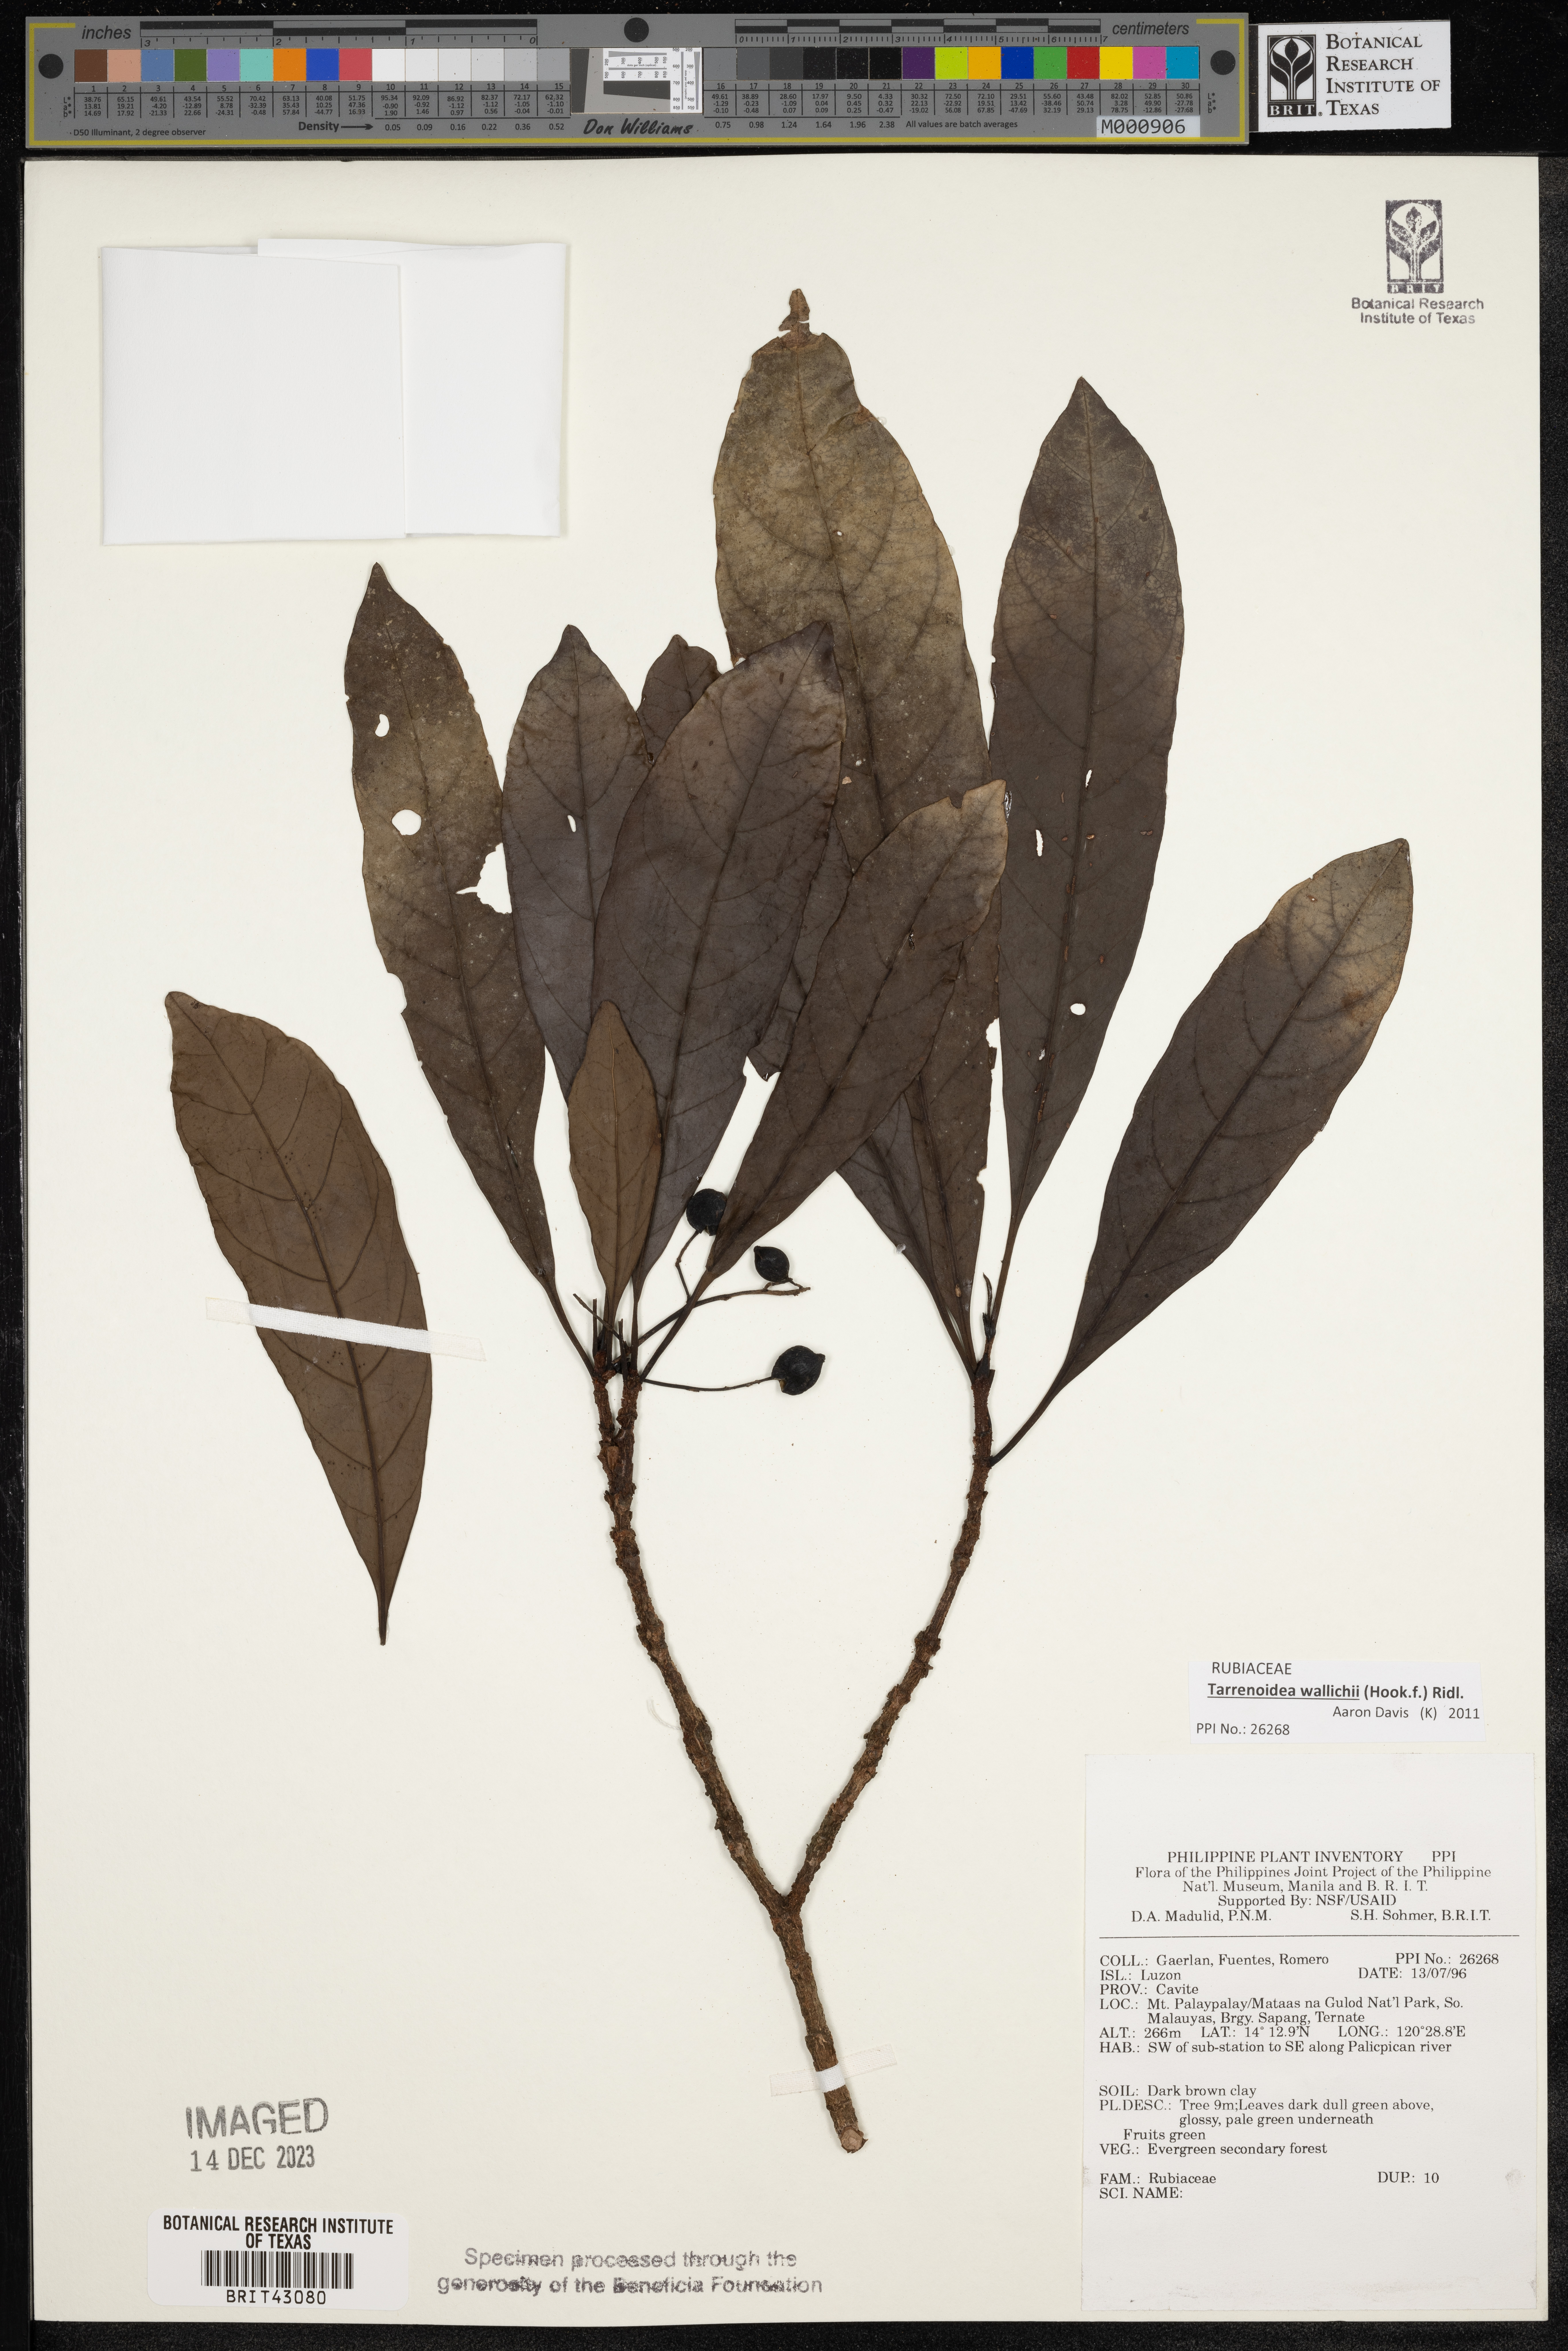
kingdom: Plantae
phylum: Tracheophyta
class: Magnoliopsida
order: Gentianales
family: Rubiaceae
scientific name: Rubiaceae
